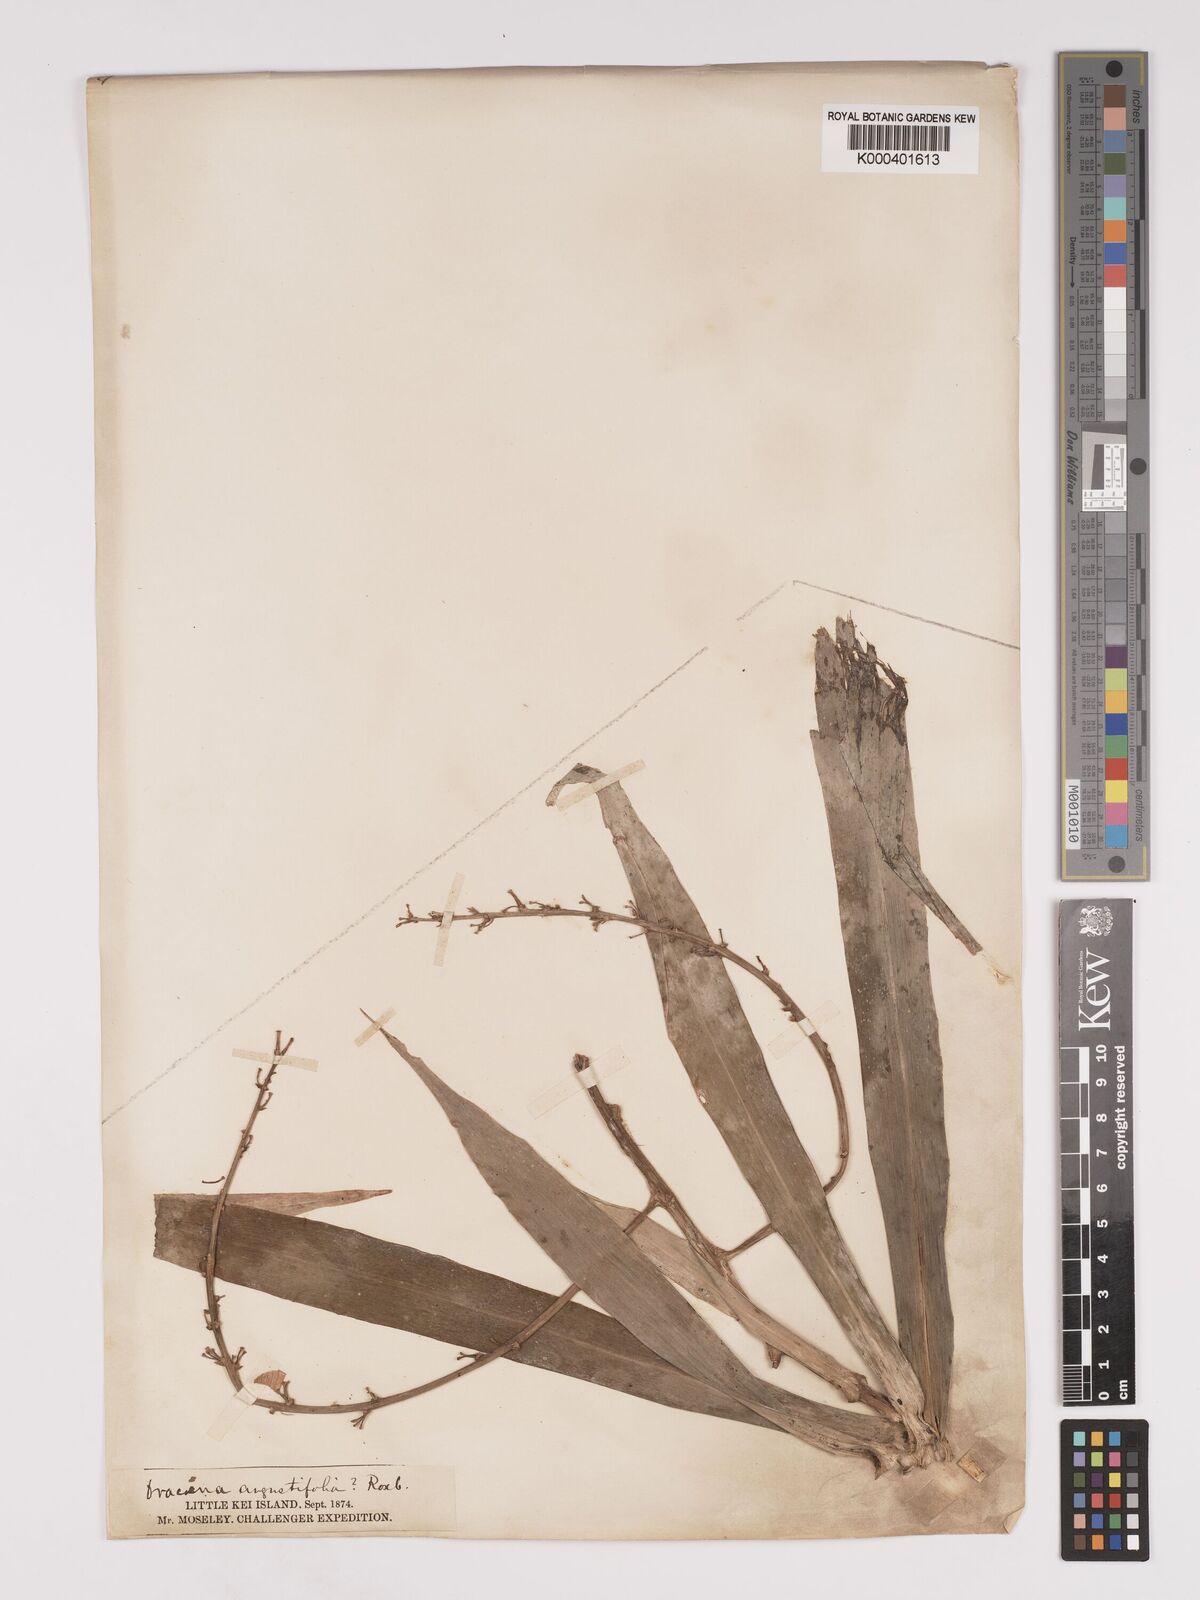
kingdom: Plantae
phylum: Tracheophyta
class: Liliopsida
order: Asparagales
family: Asparagaceae
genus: Dracaena
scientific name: Dracaena angustifolia
